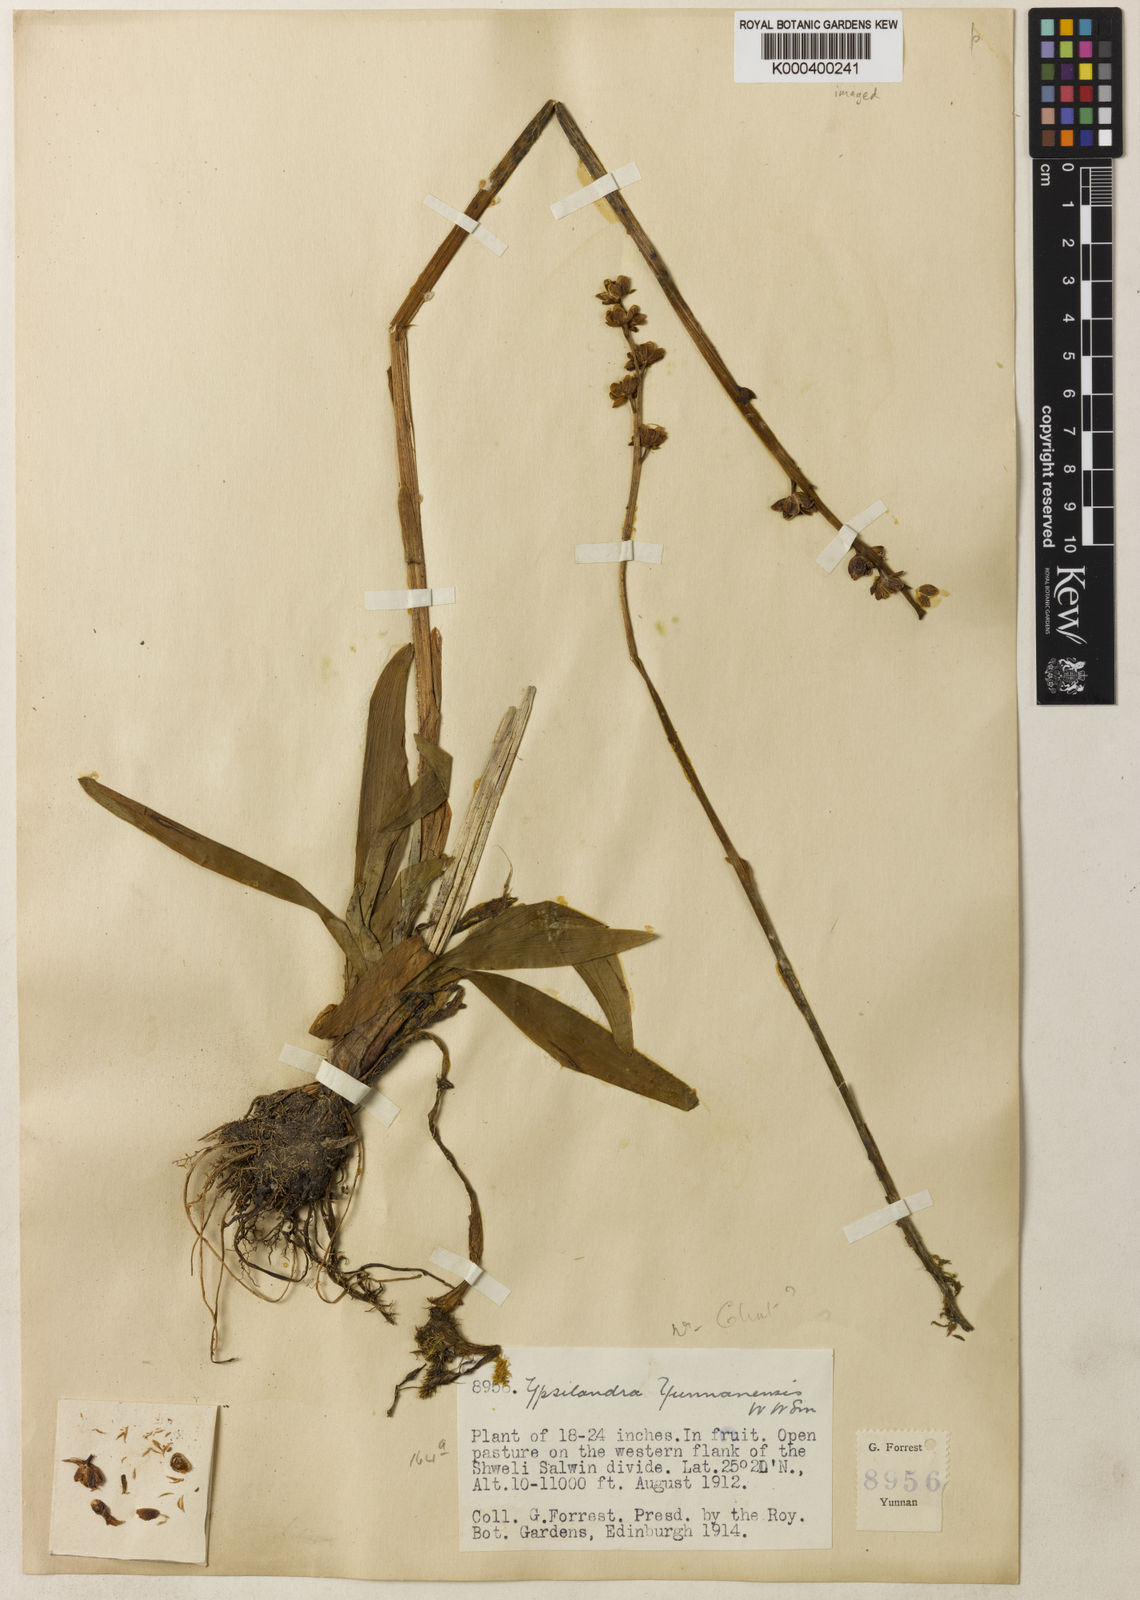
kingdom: Plantae
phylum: Tracheophyta
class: Liliopsida
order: Liliales
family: Melanthiaceae
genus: Helonias
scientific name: Helonias yunnanensis
